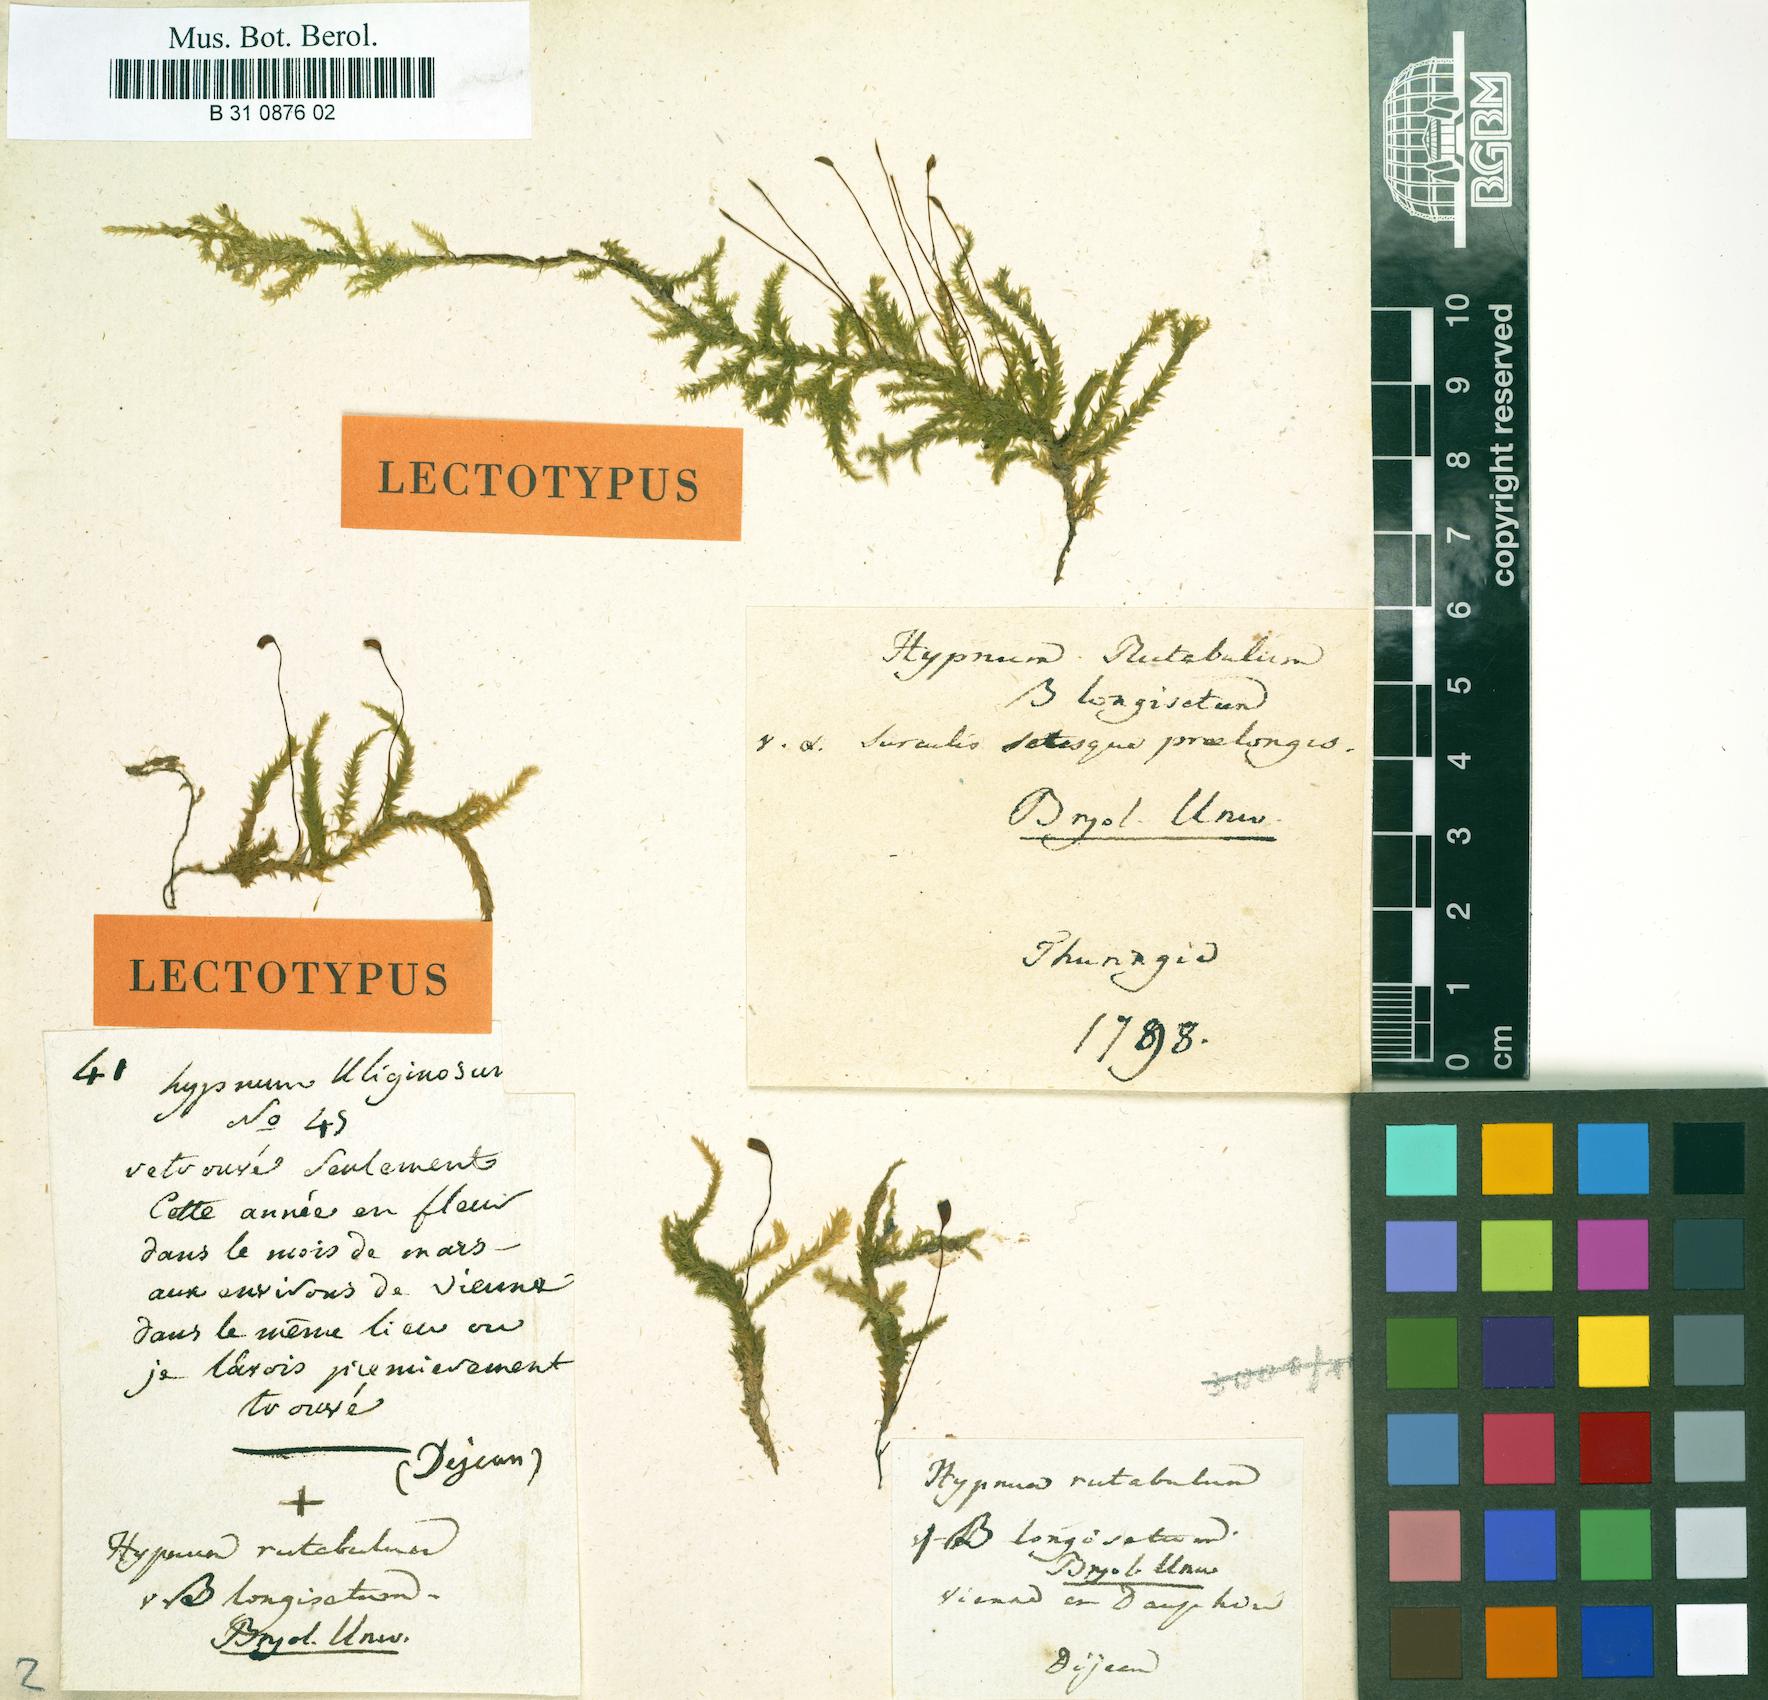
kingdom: Plantae
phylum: Bryophyta
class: Bryopsida
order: Hypnales
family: Brachytheciaceae
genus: Brachythecium
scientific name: Brachythecium rutabulum
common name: Rough-stalked feather-moss
